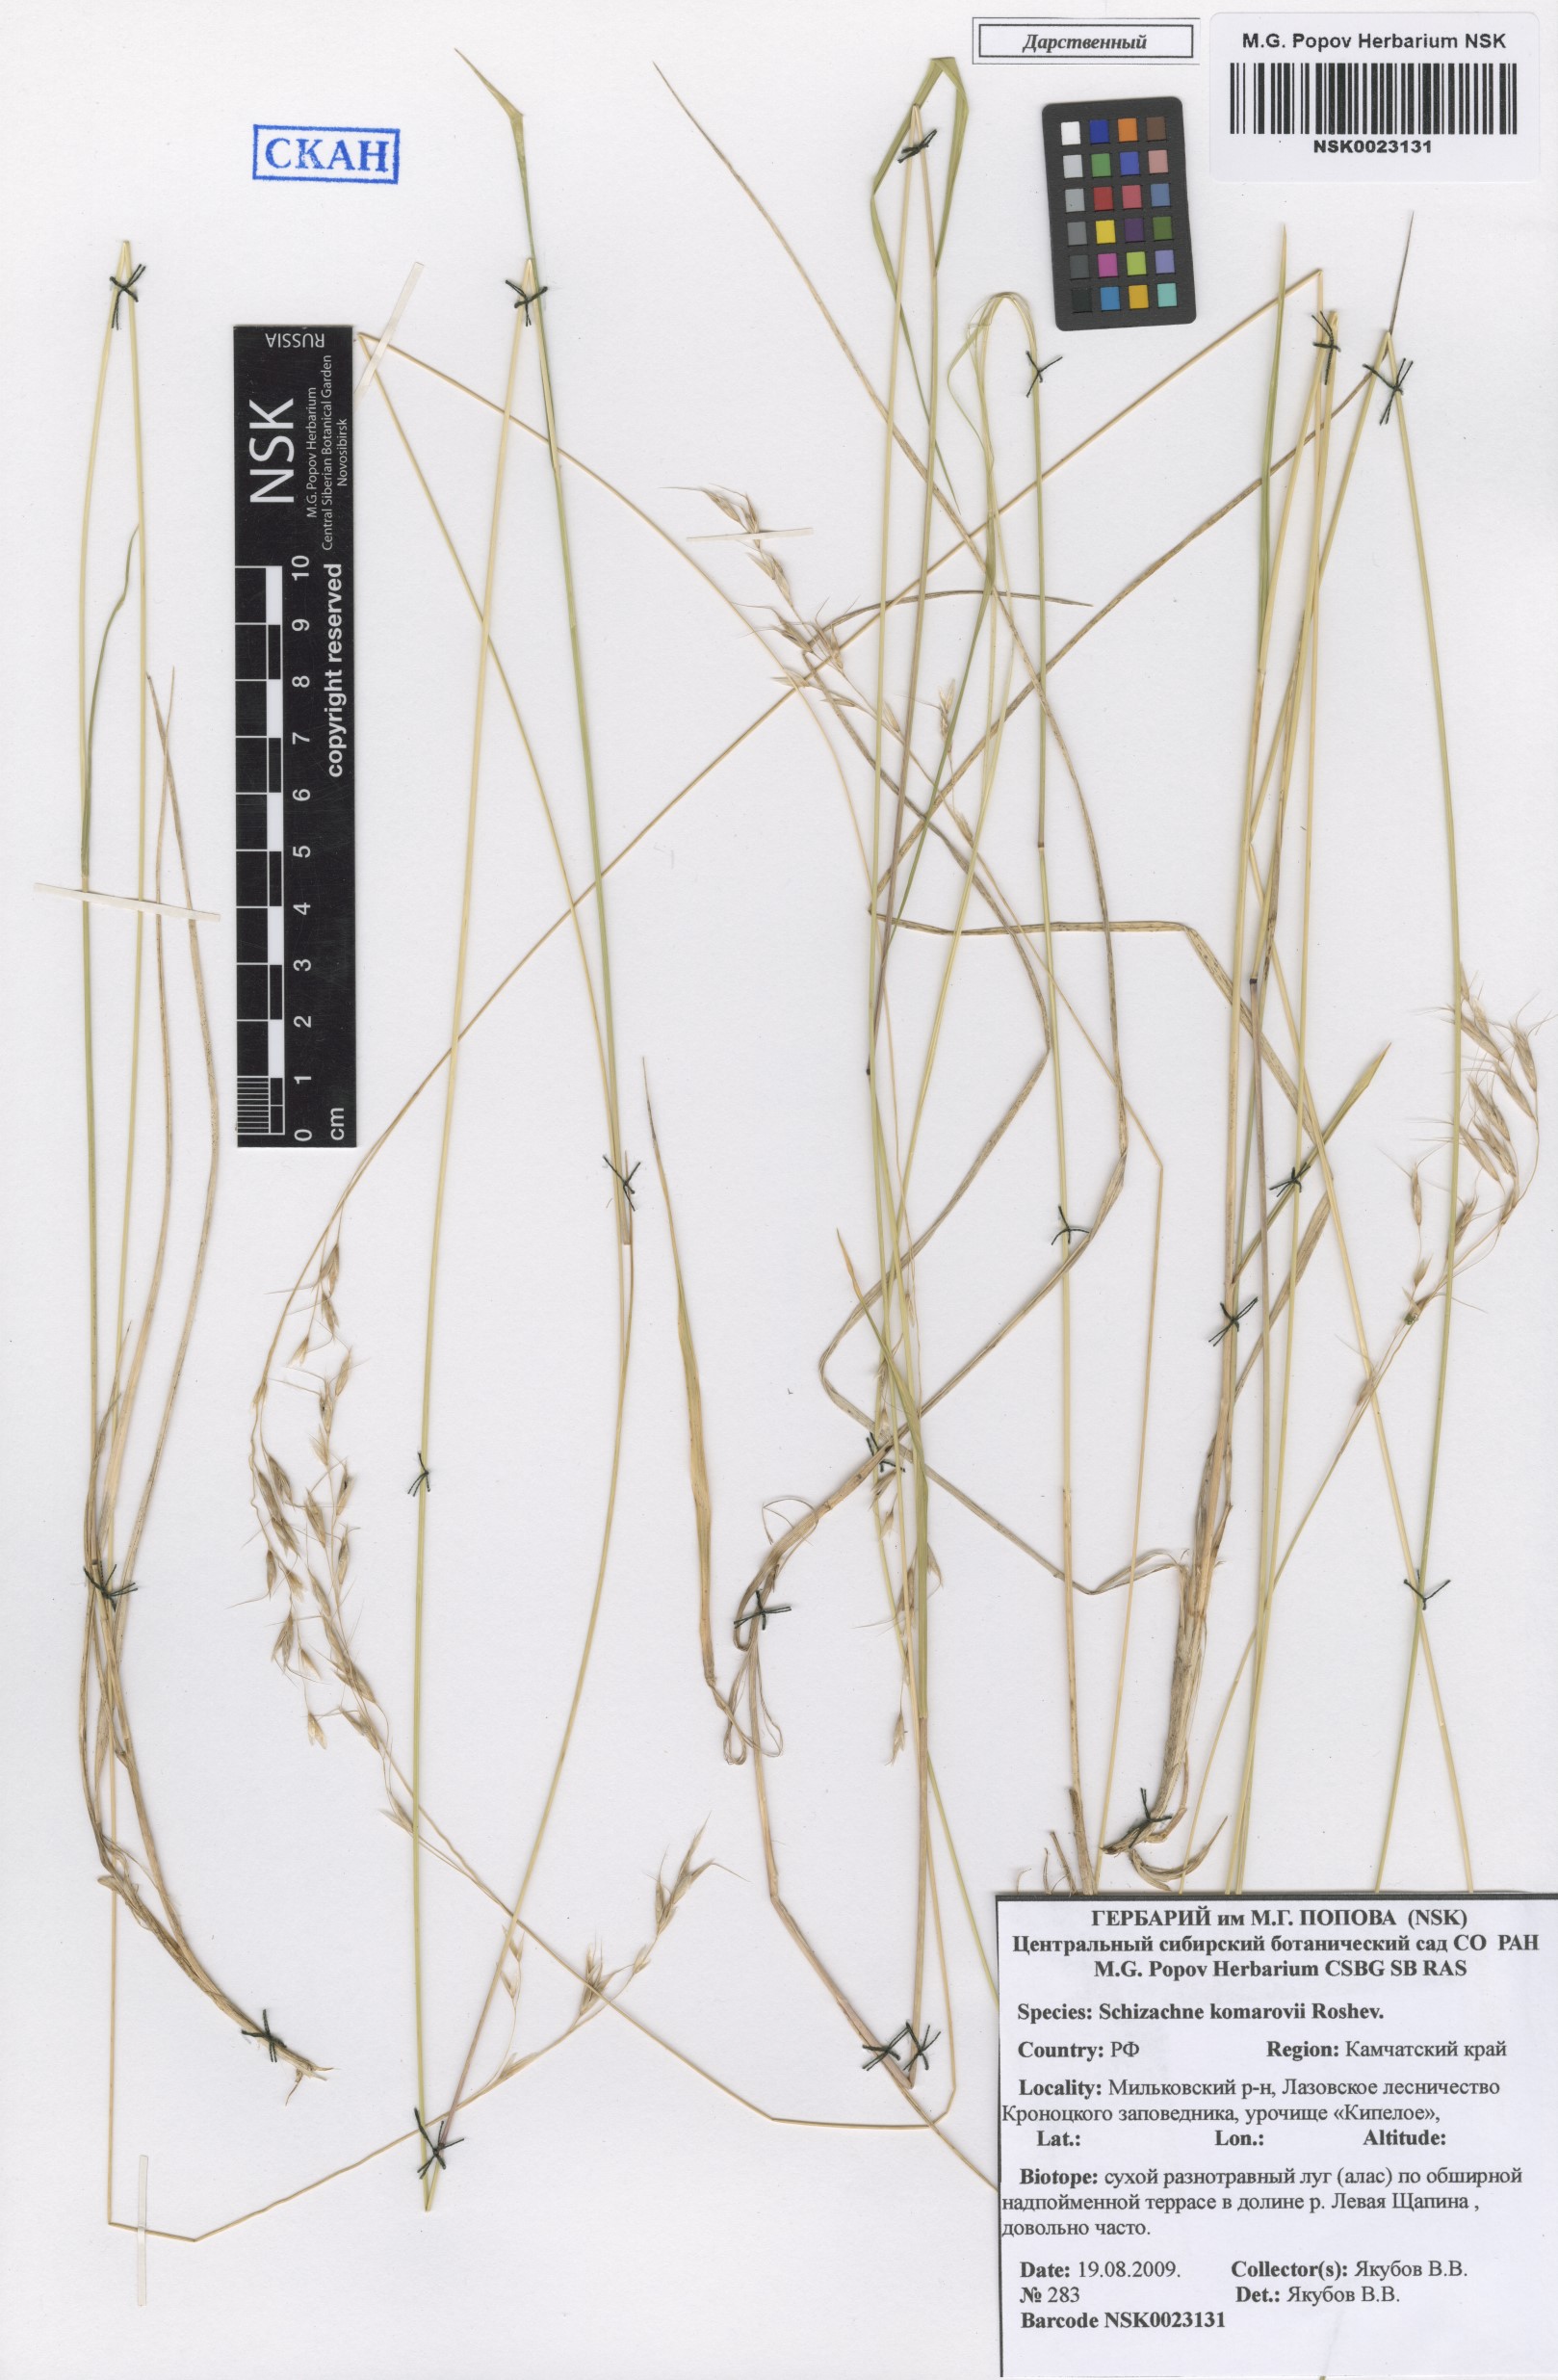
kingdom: Plantae
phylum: Tracheophyta
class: Liliopsida
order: Poales
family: Poaceae
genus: Schizachne
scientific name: Schizachne purpurascens
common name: False melic
